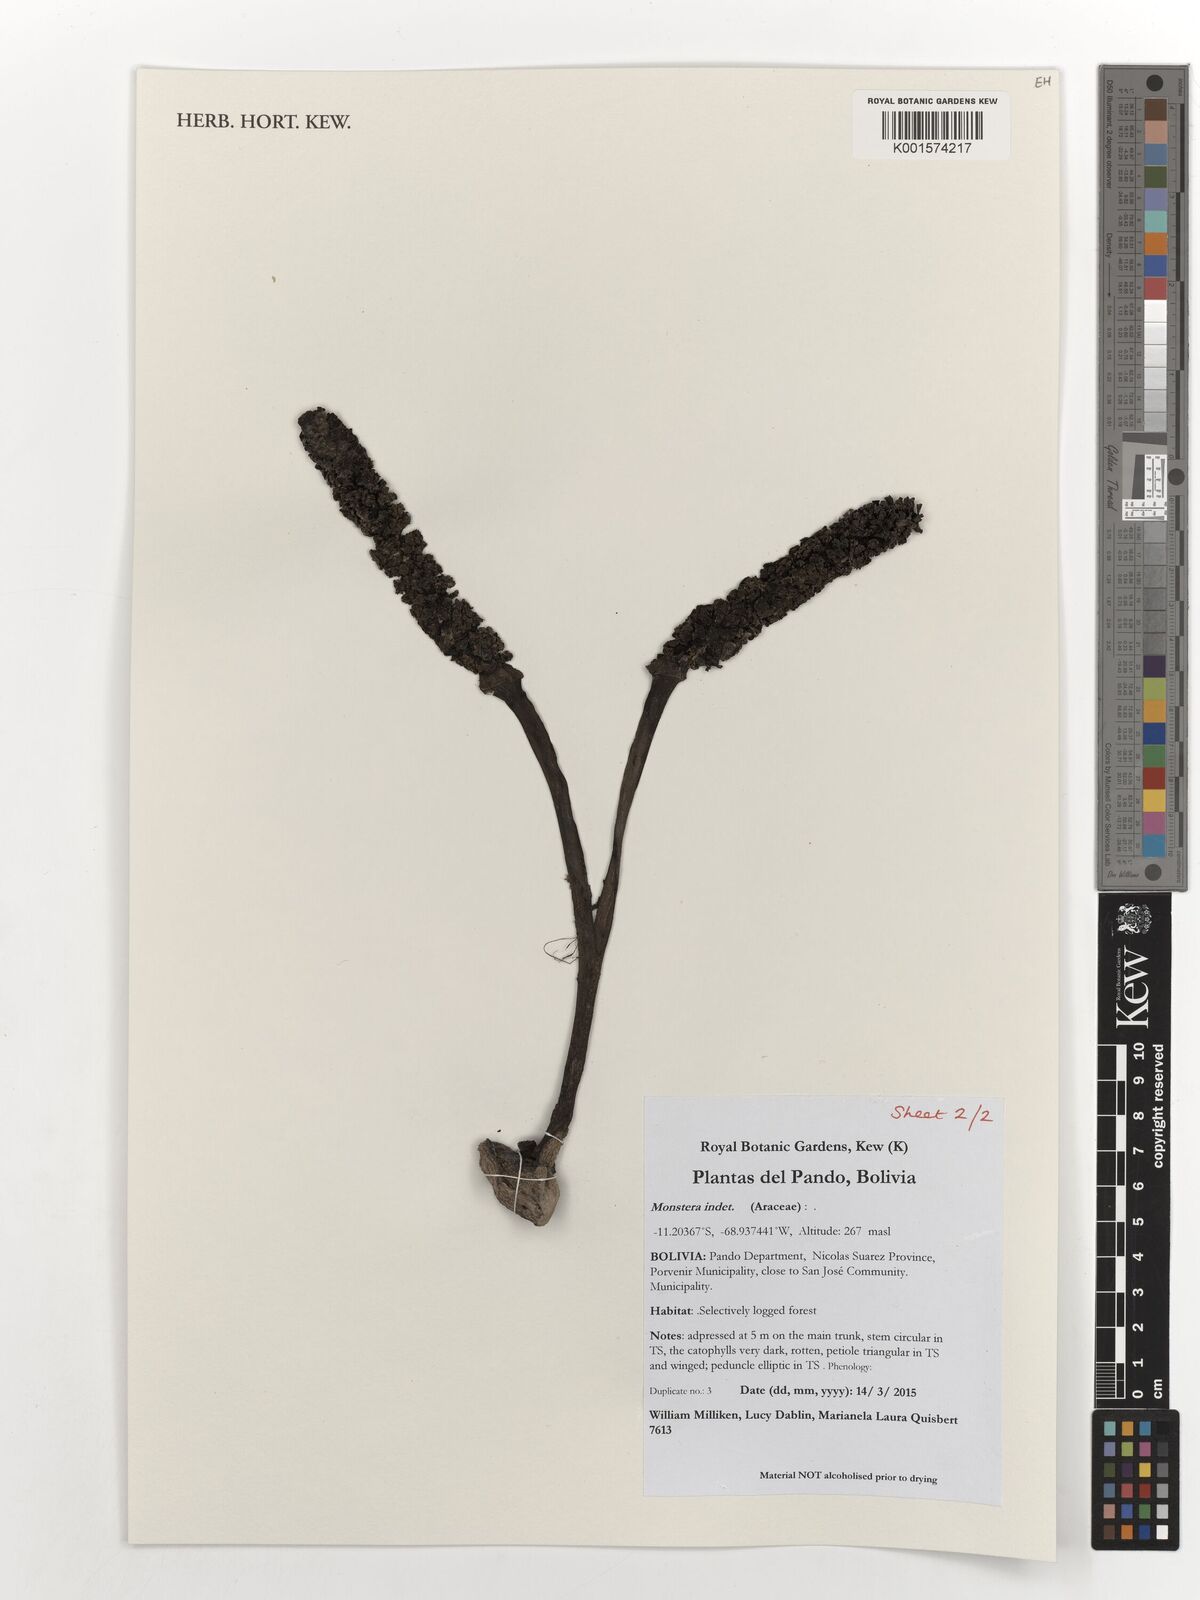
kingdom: Plantae
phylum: Tracheophyta
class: Liliopsida
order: Alismatales
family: Araceae
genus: Monstera
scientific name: Monstera
